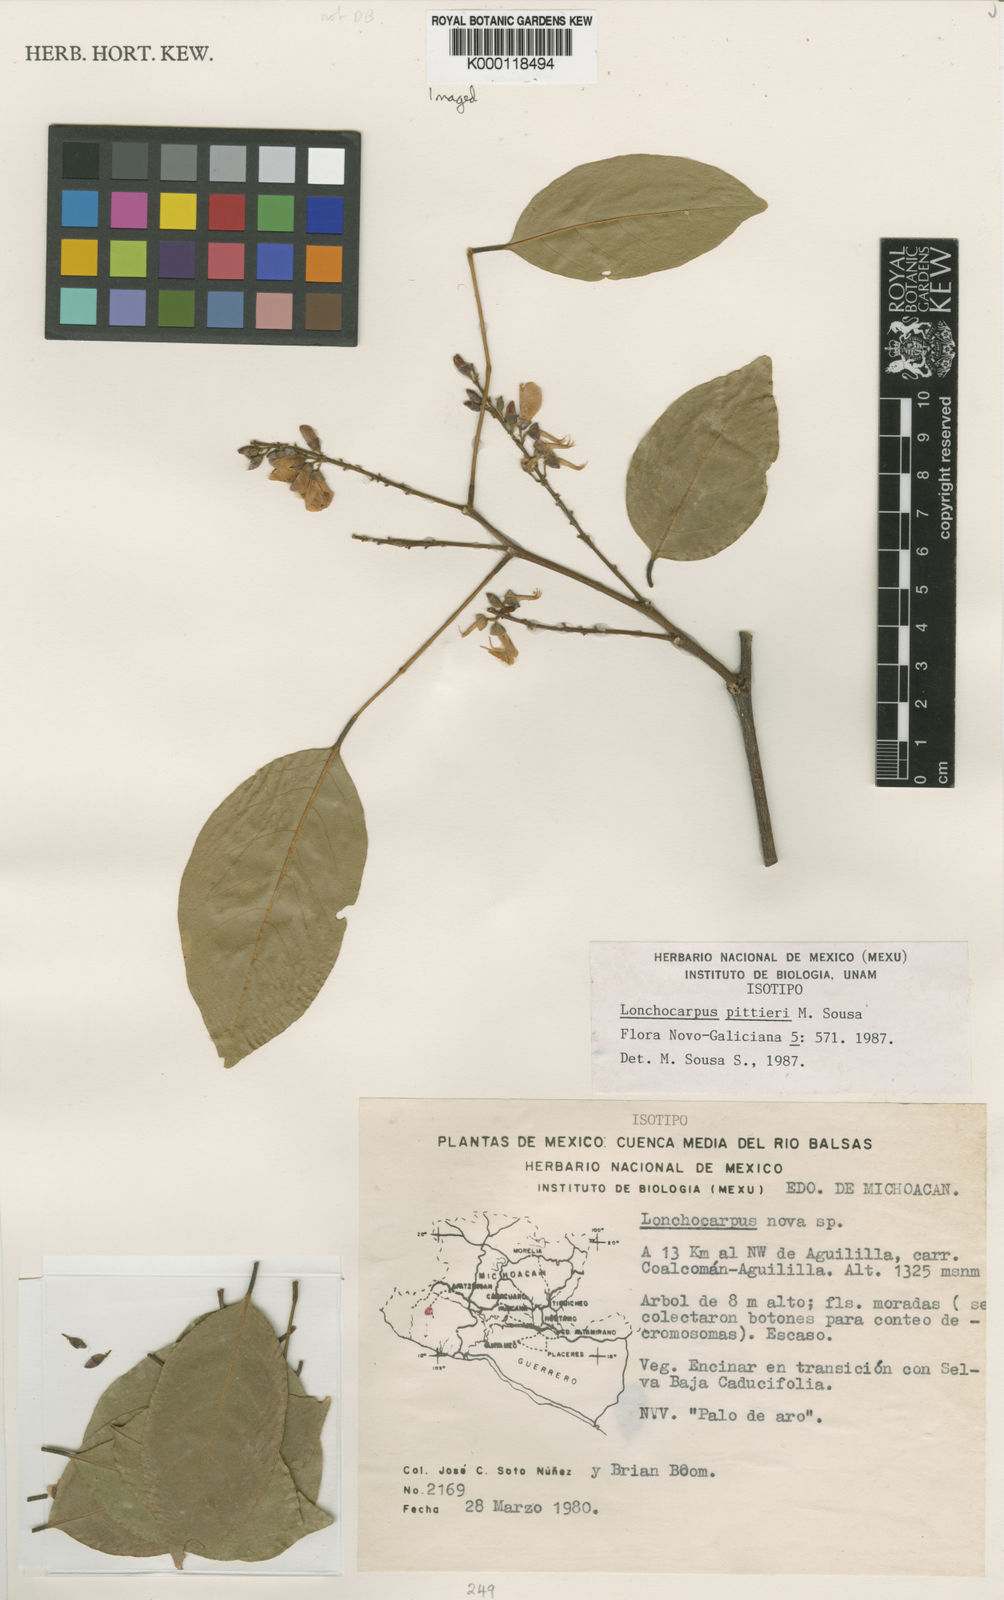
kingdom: Plantae
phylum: Tracheophyta
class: Magnoliopsida
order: Fabales
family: Fabaceae
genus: Lonchocarpus
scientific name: Lonchocarpus pittieri
